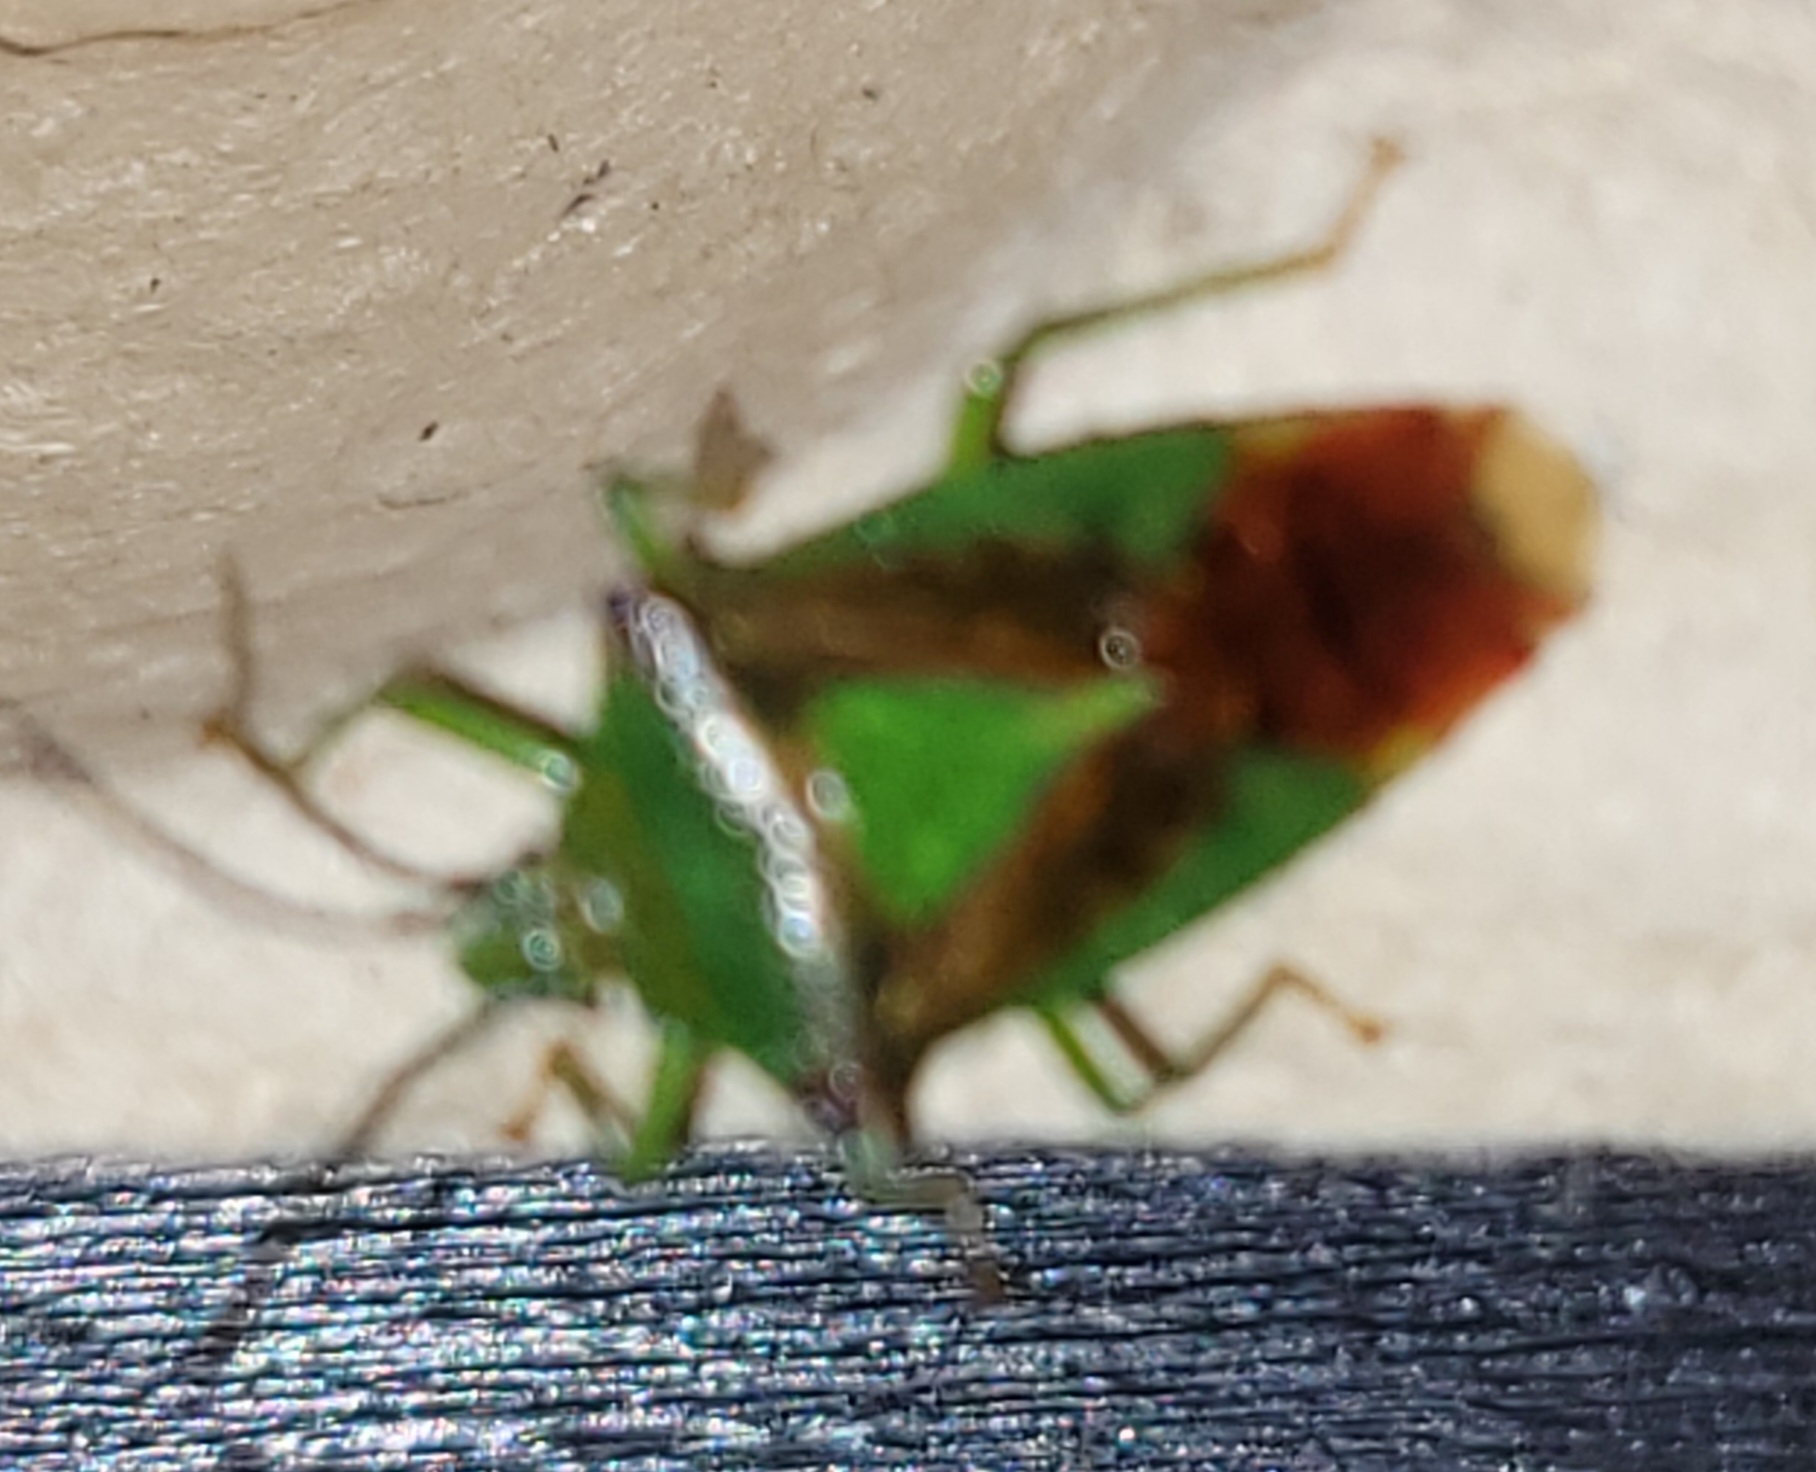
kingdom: Animalia
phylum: Arthropoda
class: Insecta
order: Hemiptera
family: Acanthosomatidae
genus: Acanthosoma
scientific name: Acanthosoma haemorrhoidale
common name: Stor løvtæge
